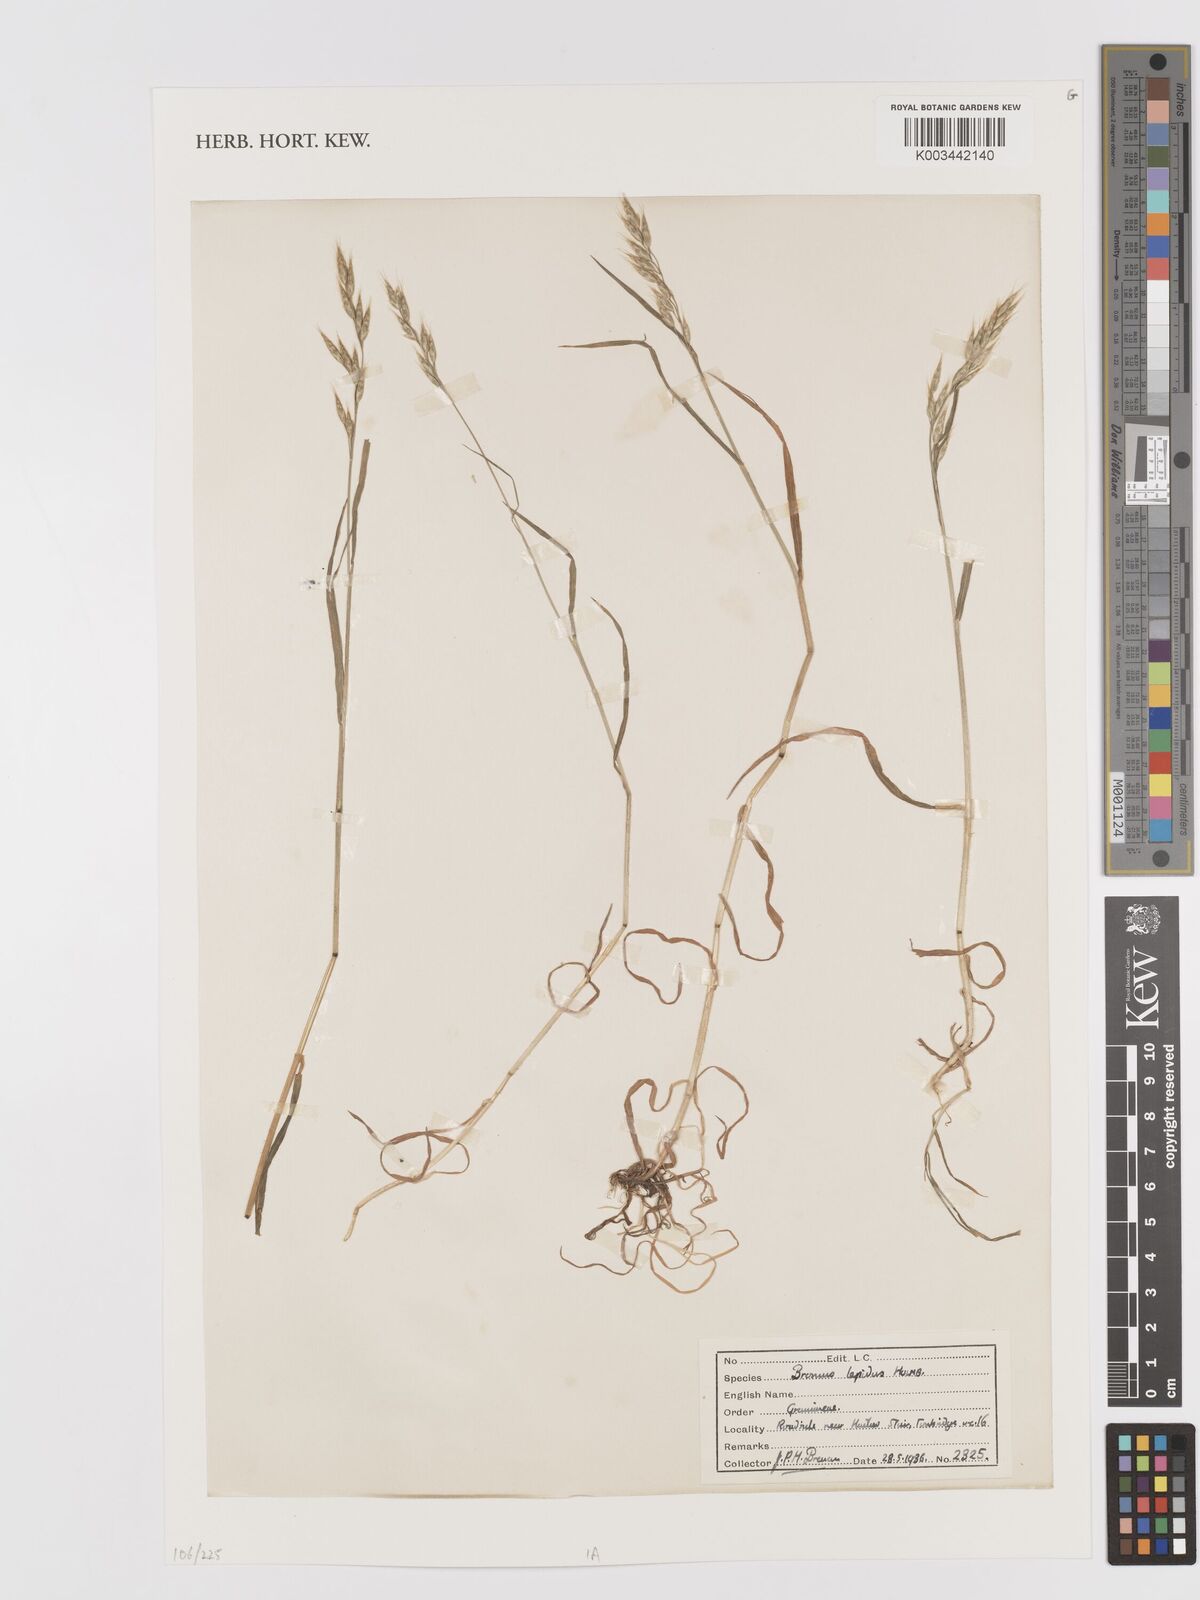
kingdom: Plantae
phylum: Tracheophyta
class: Liliopsida
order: Poales
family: Poaceae
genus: Bromus
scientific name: Bromus lepidus
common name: Slender soft-brome
